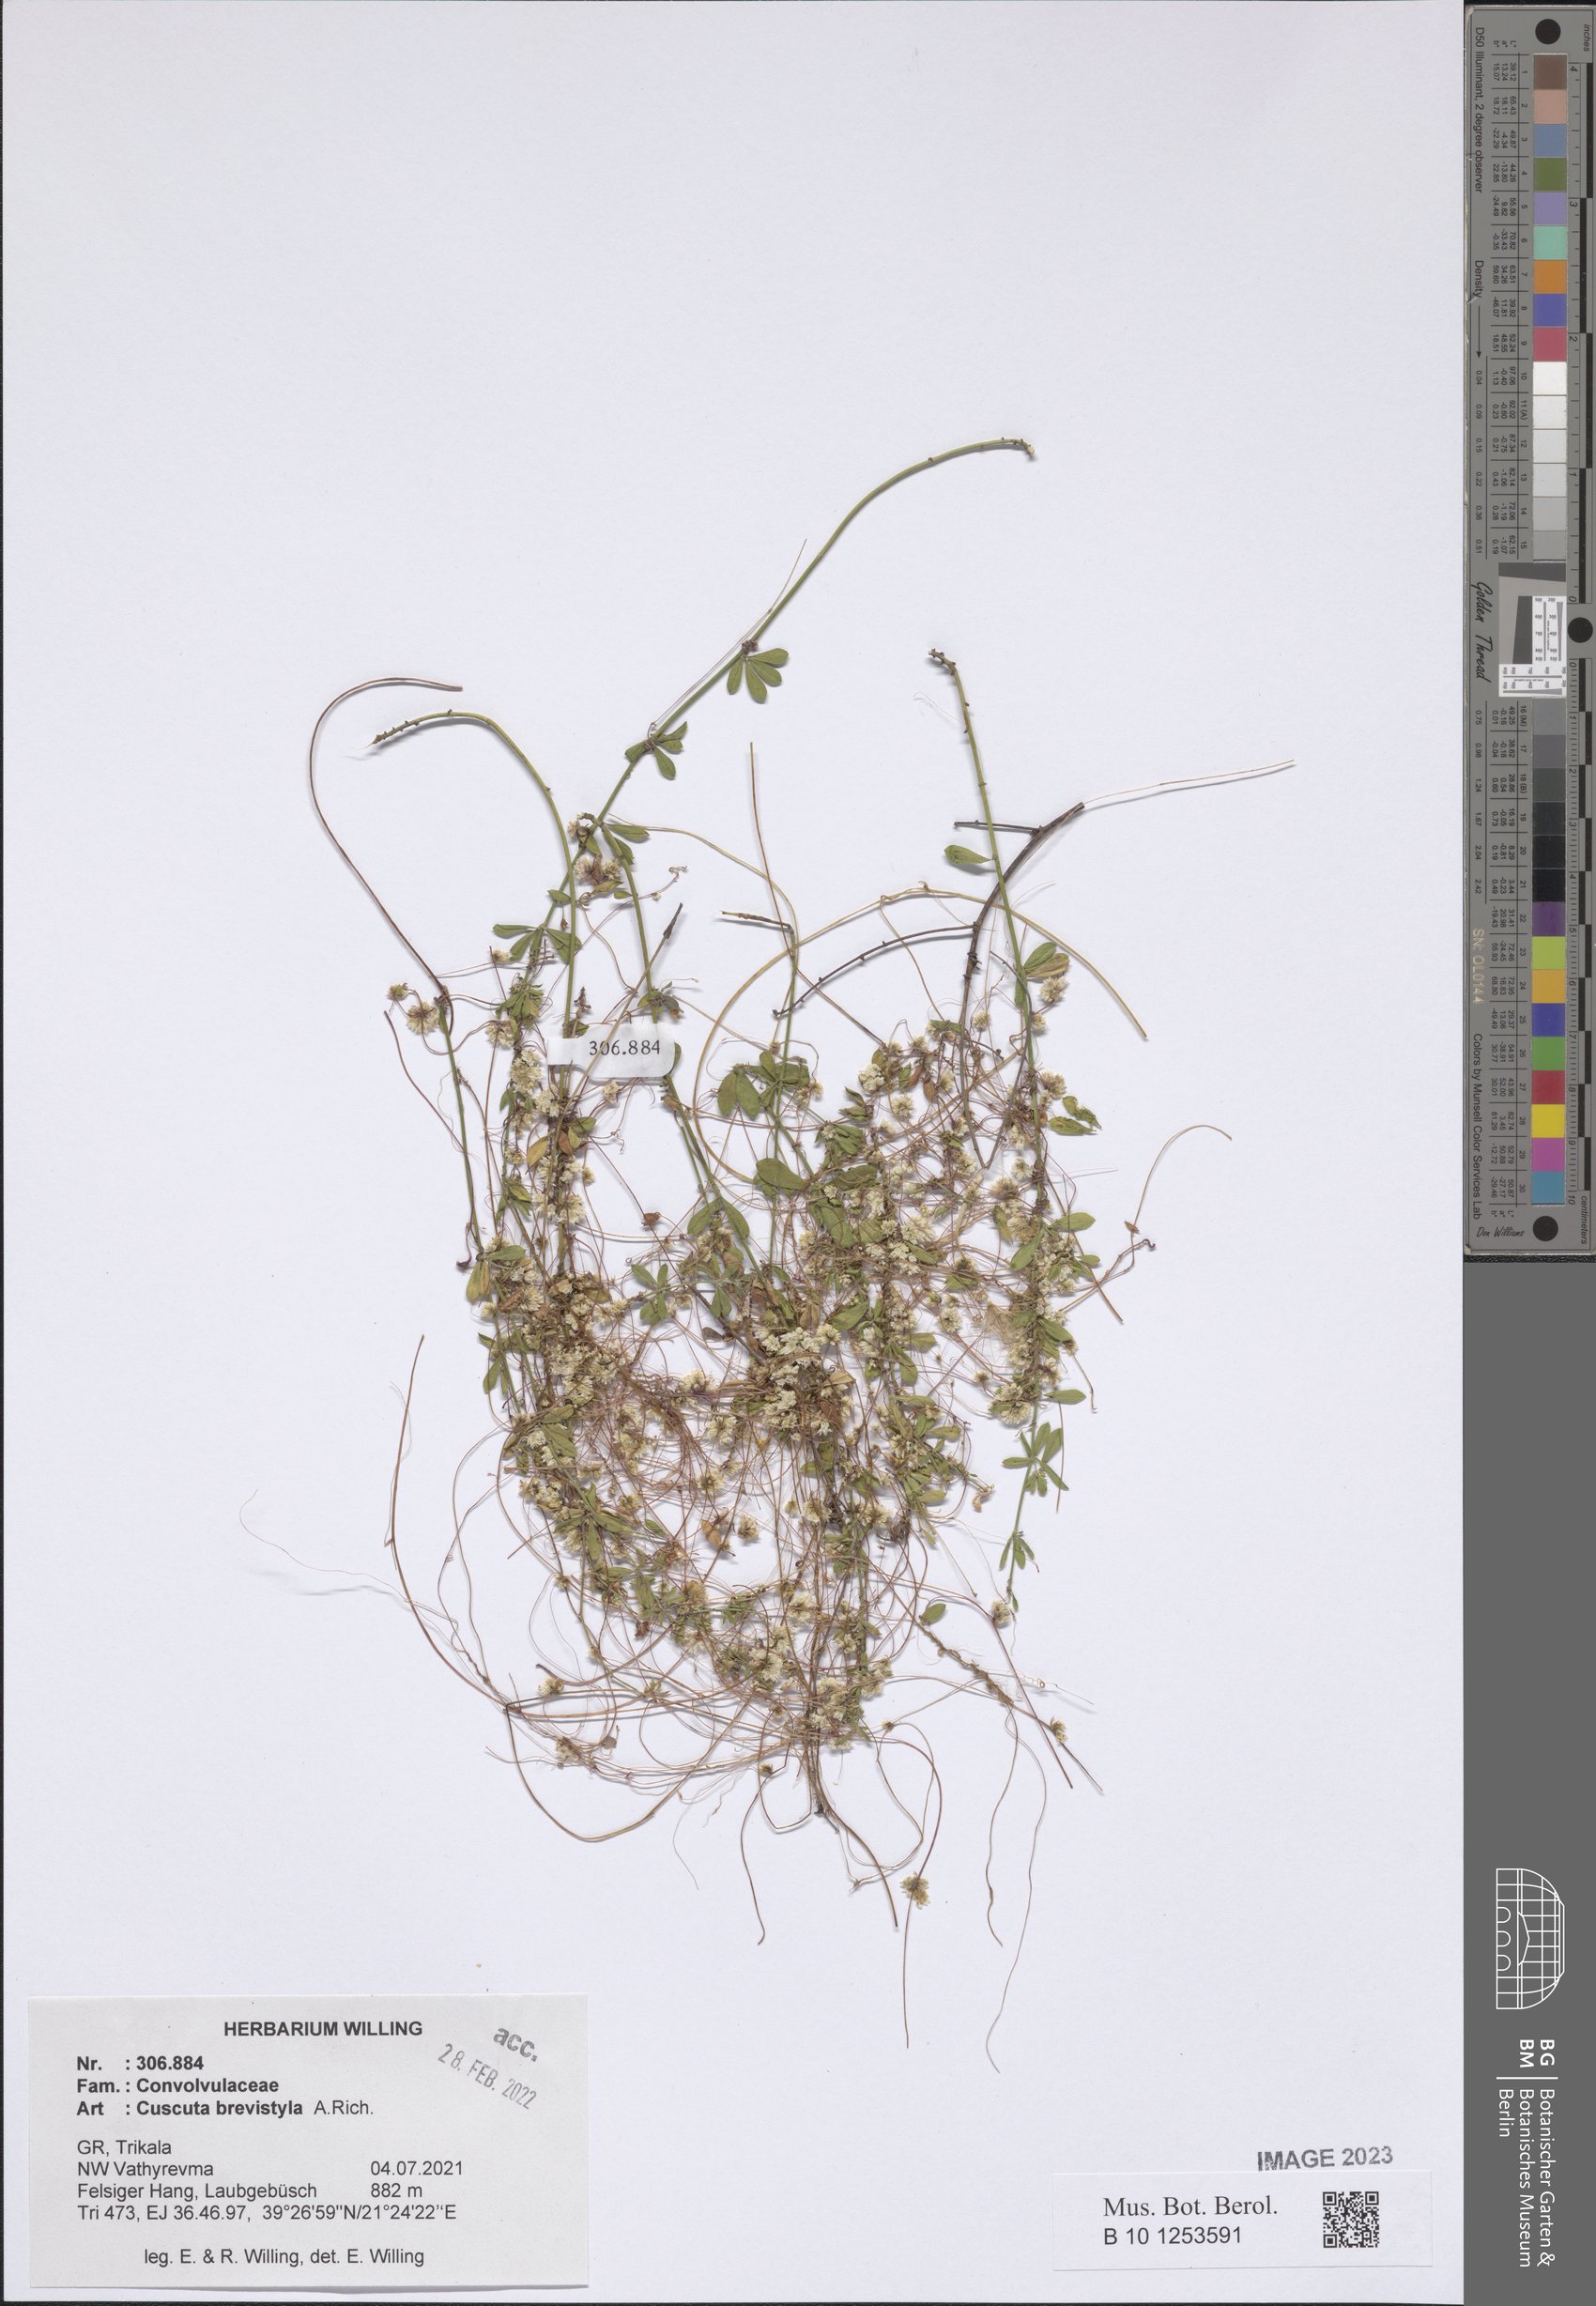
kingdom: Plantae
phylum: Tracheophyta
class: Magnoliopsida
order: Solanales
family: Convolvulaceae
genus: Cuscuta
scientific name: Cuscuta brevistyla
